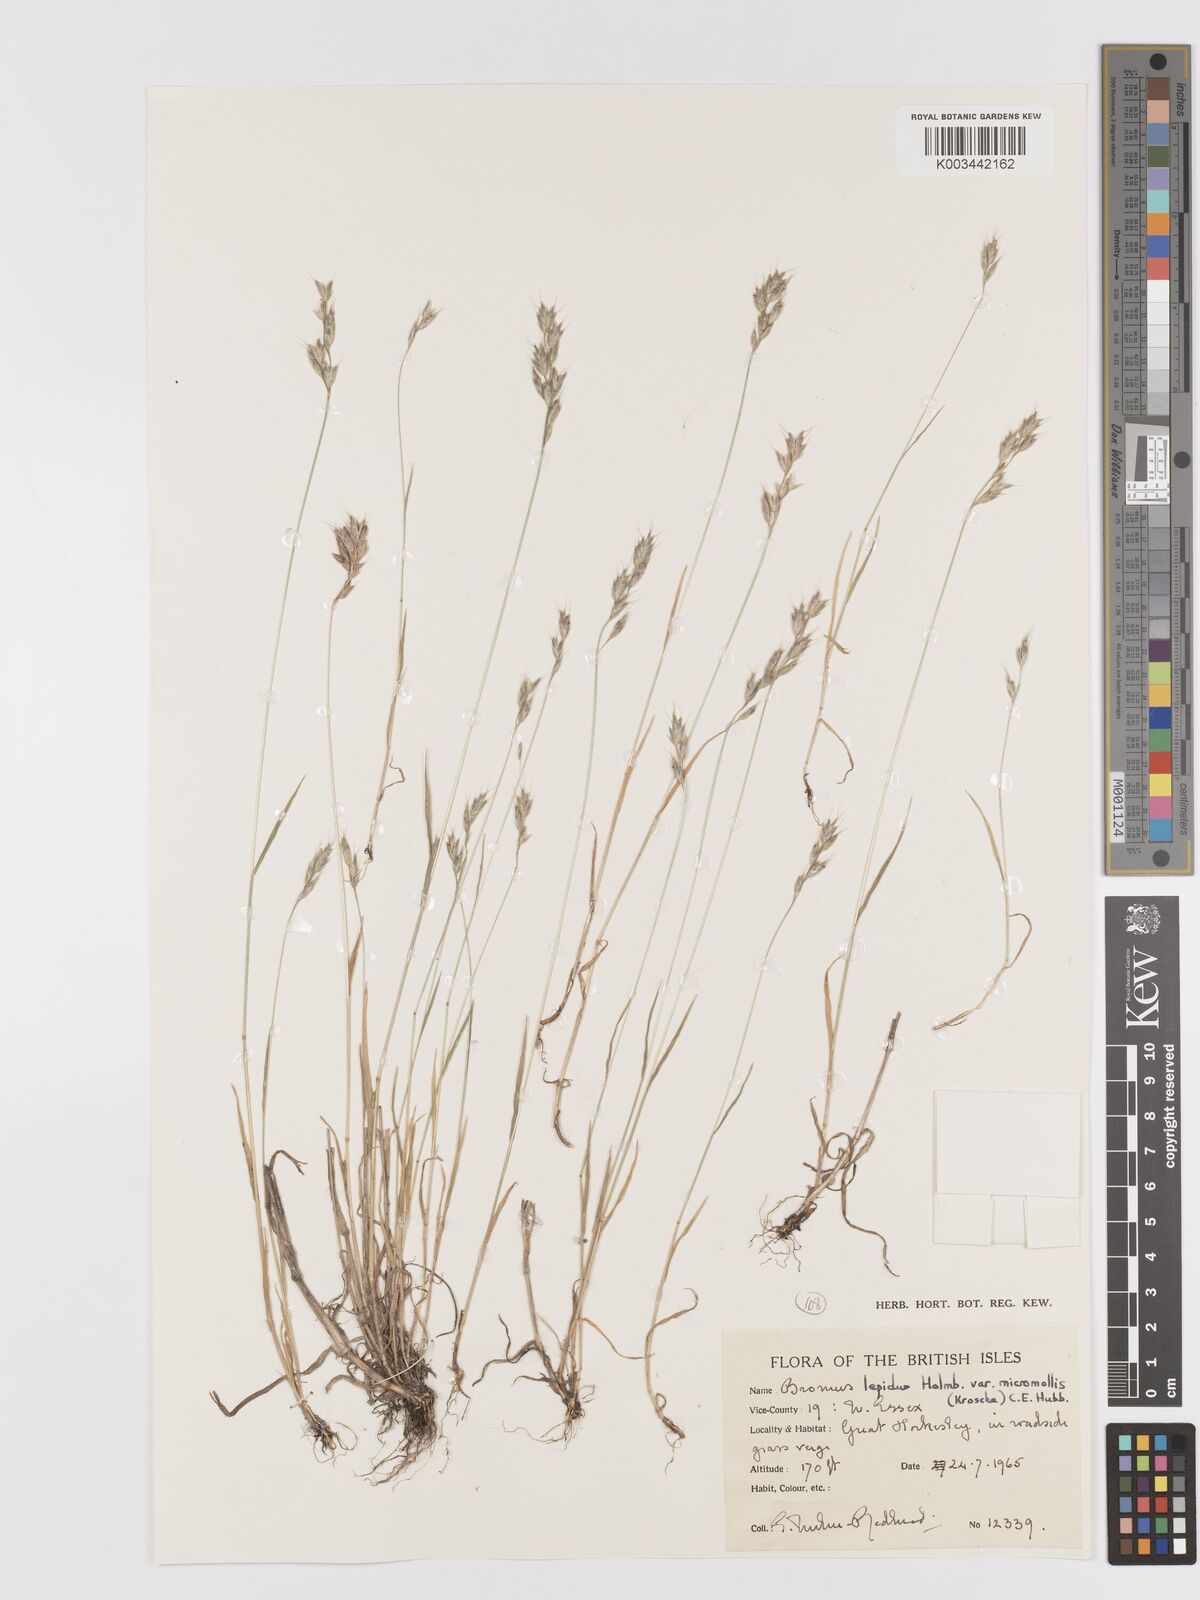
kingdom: Plantae
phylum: Tracheophyta
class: Liliopsida
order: Poales
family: Poaceae
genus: Bromus
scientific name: Bromus lepidus
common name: Slender soft-brome
